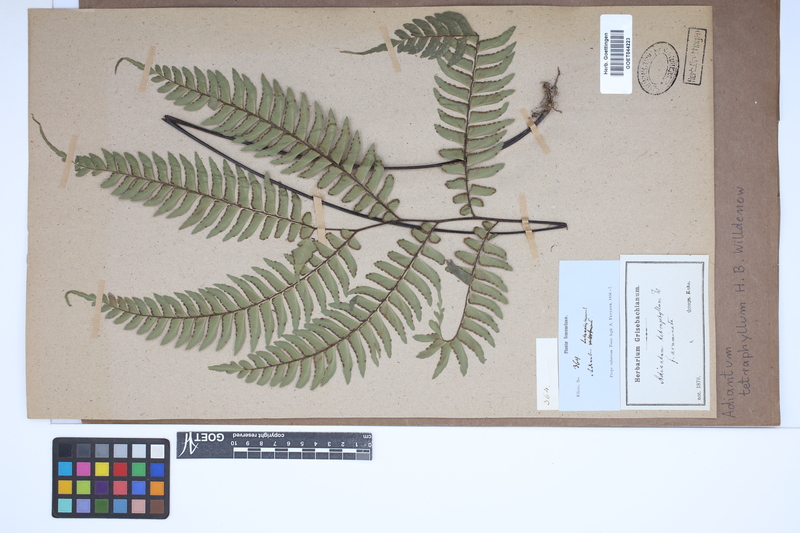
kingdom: Plantae
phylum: Tracheophyta
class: Polypodiopsida
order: Polypodiales
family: Pteridaceae
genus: Adiantum
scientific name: Adiantum tetraphyllum
